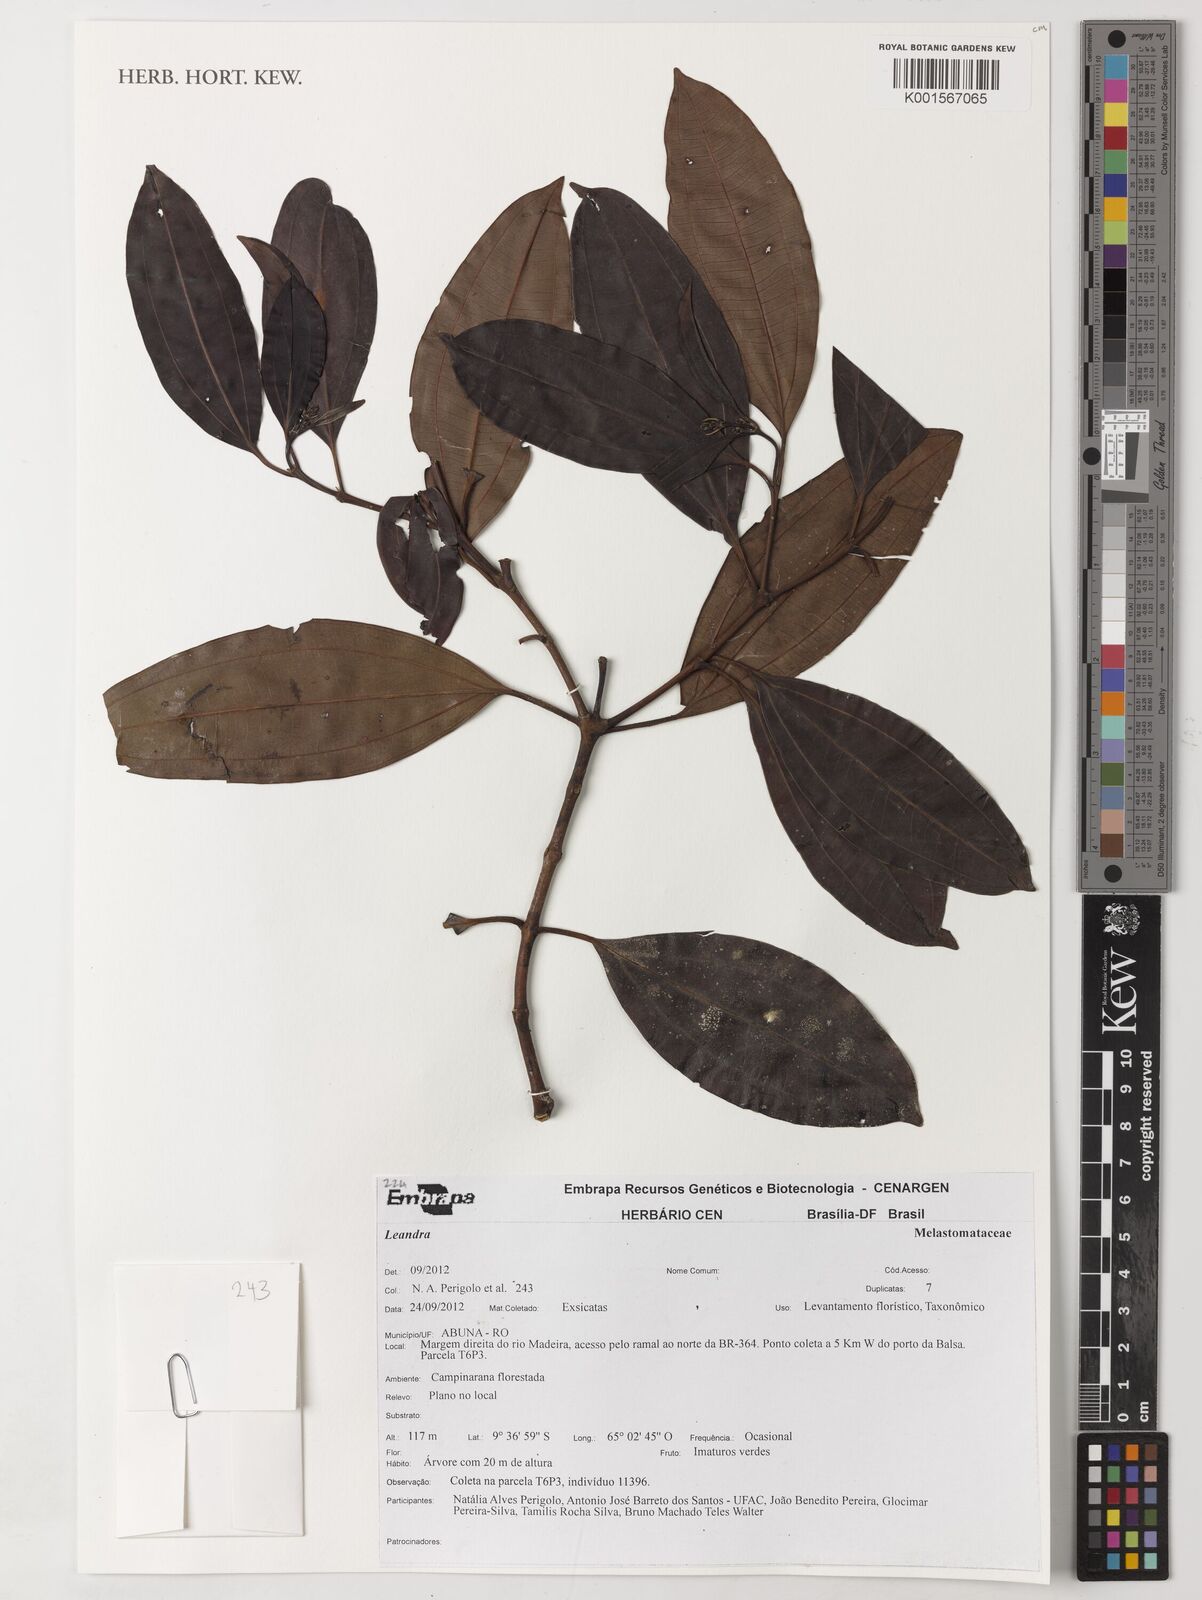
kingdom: Plantae
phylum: Tracheophyta
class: Magnoliopsida
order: Myrtales
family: Melastomataceae
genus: Miconia
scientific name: Miconia
